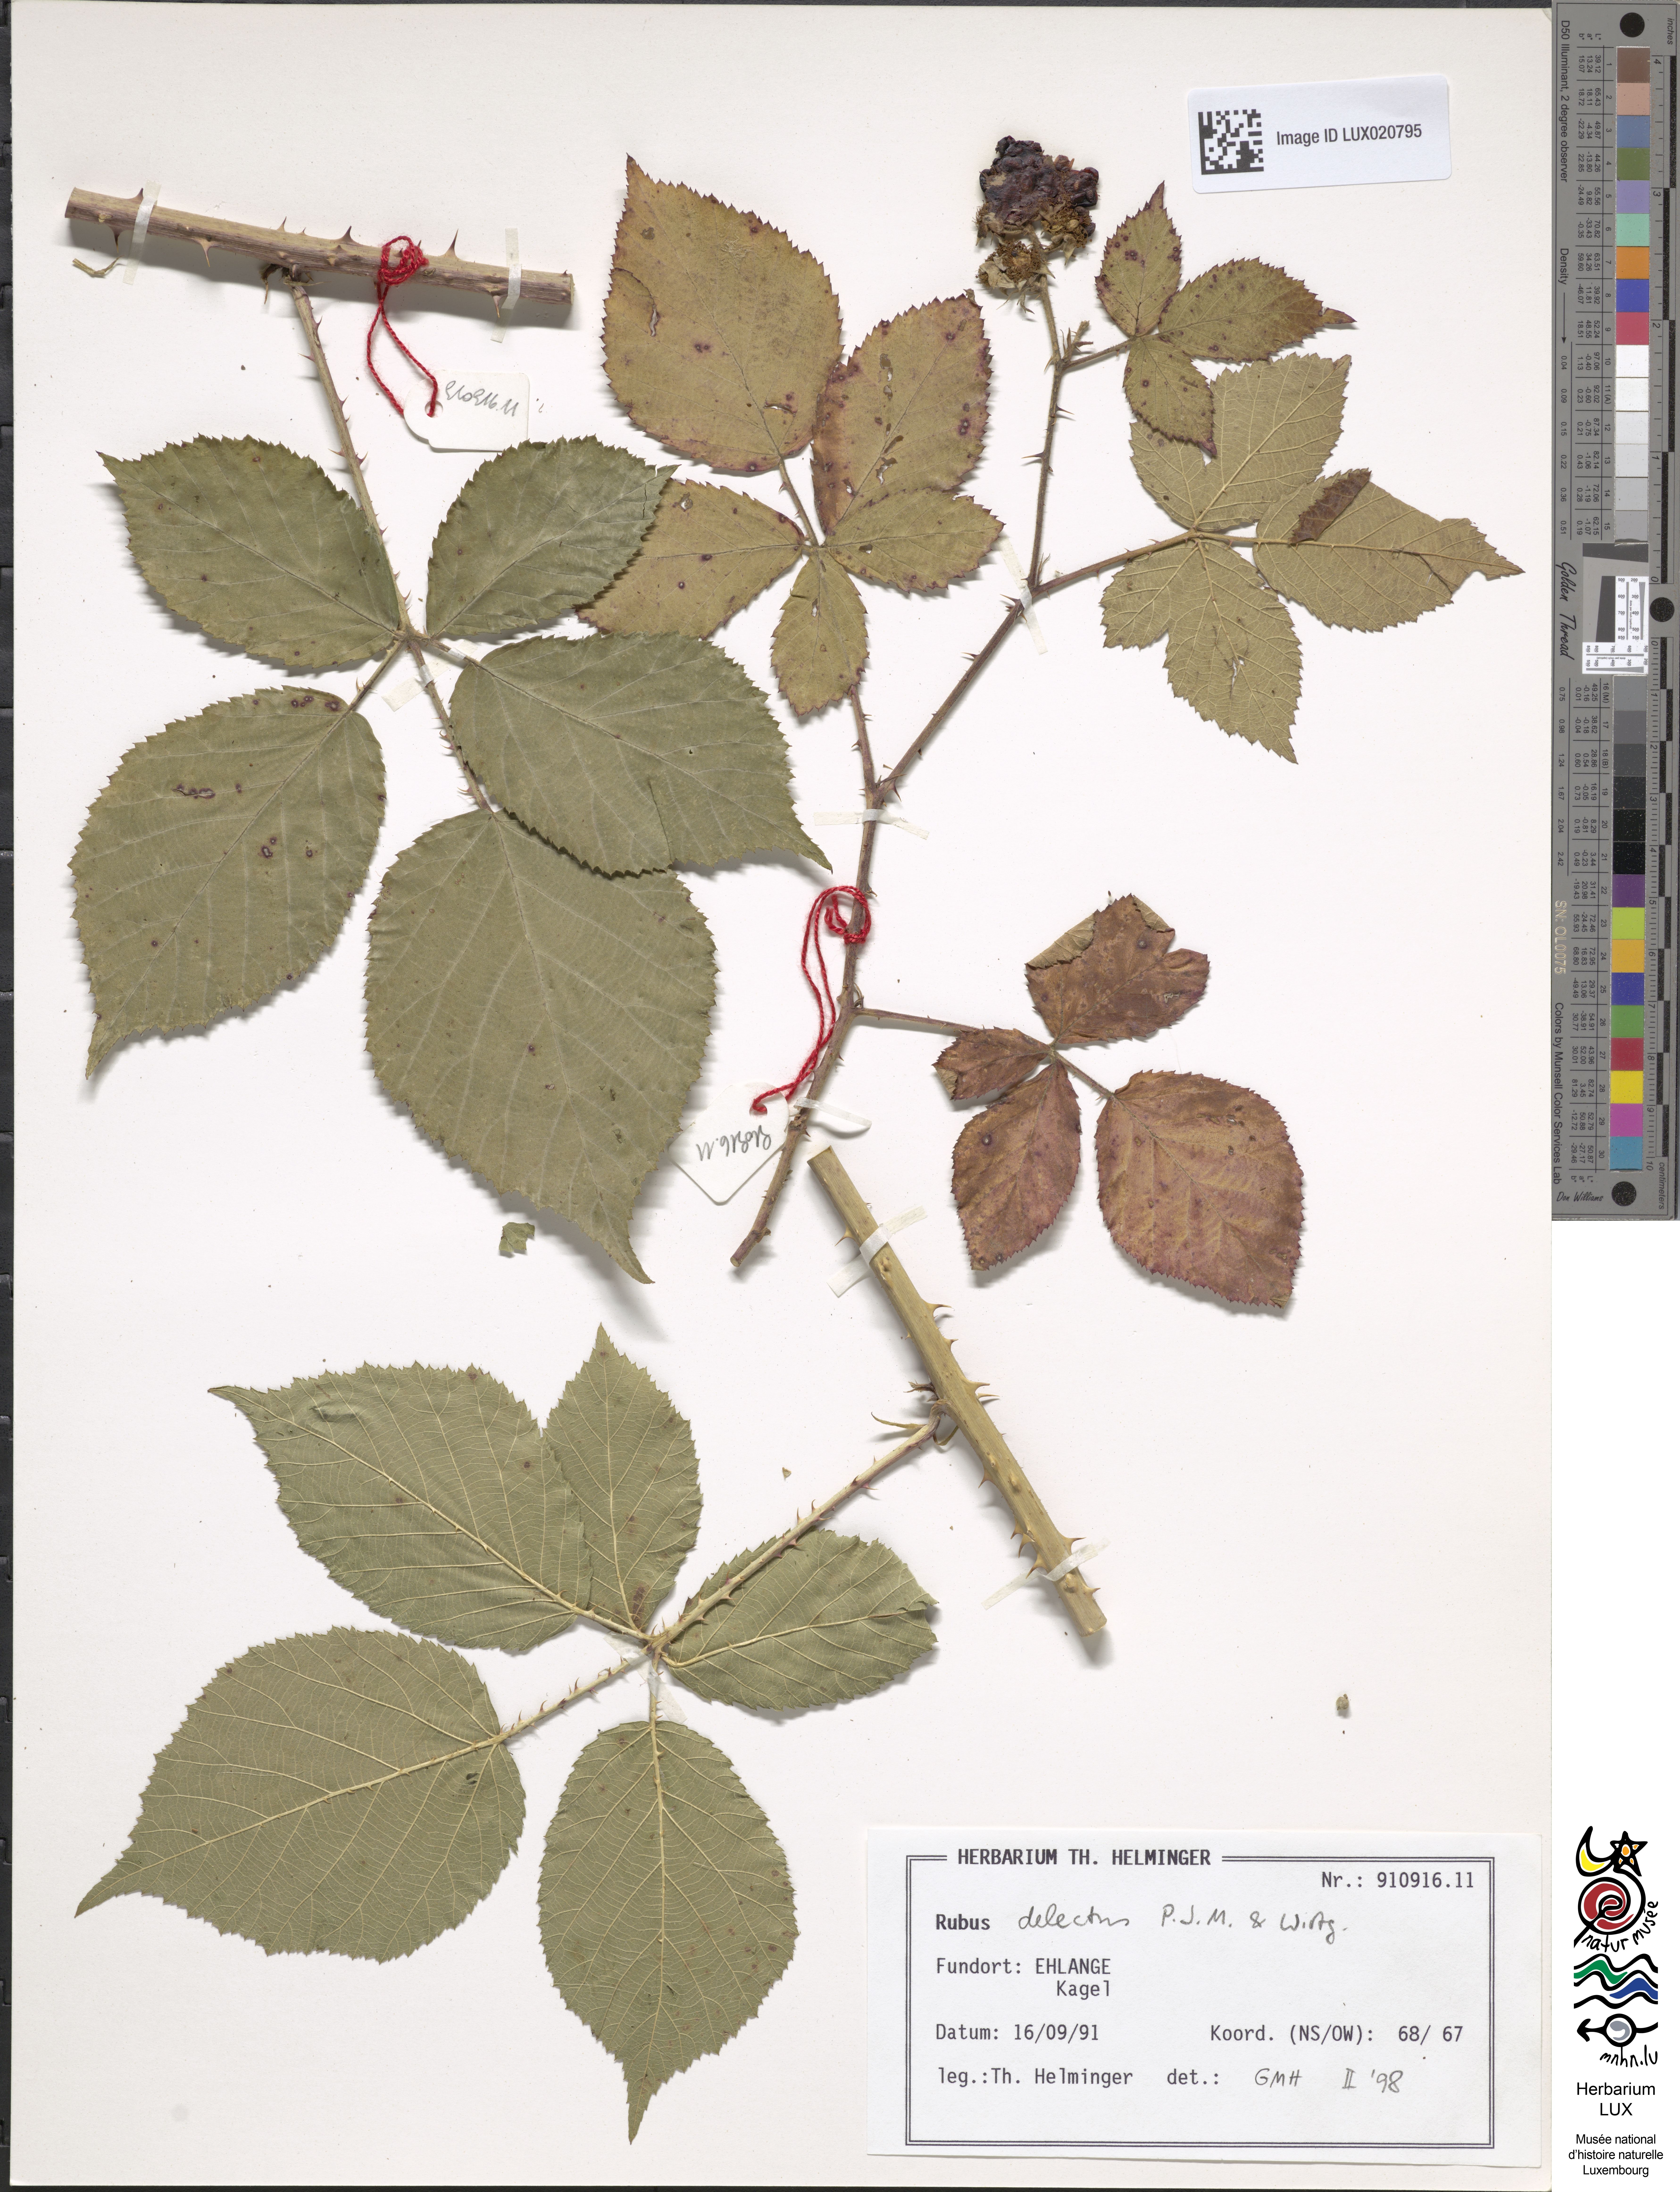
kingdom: Plantae
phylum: Tracheophyta
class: Magnoliopsida
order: Rosales
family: Rosaceae
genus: Rubus
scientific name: Rubus delectus
